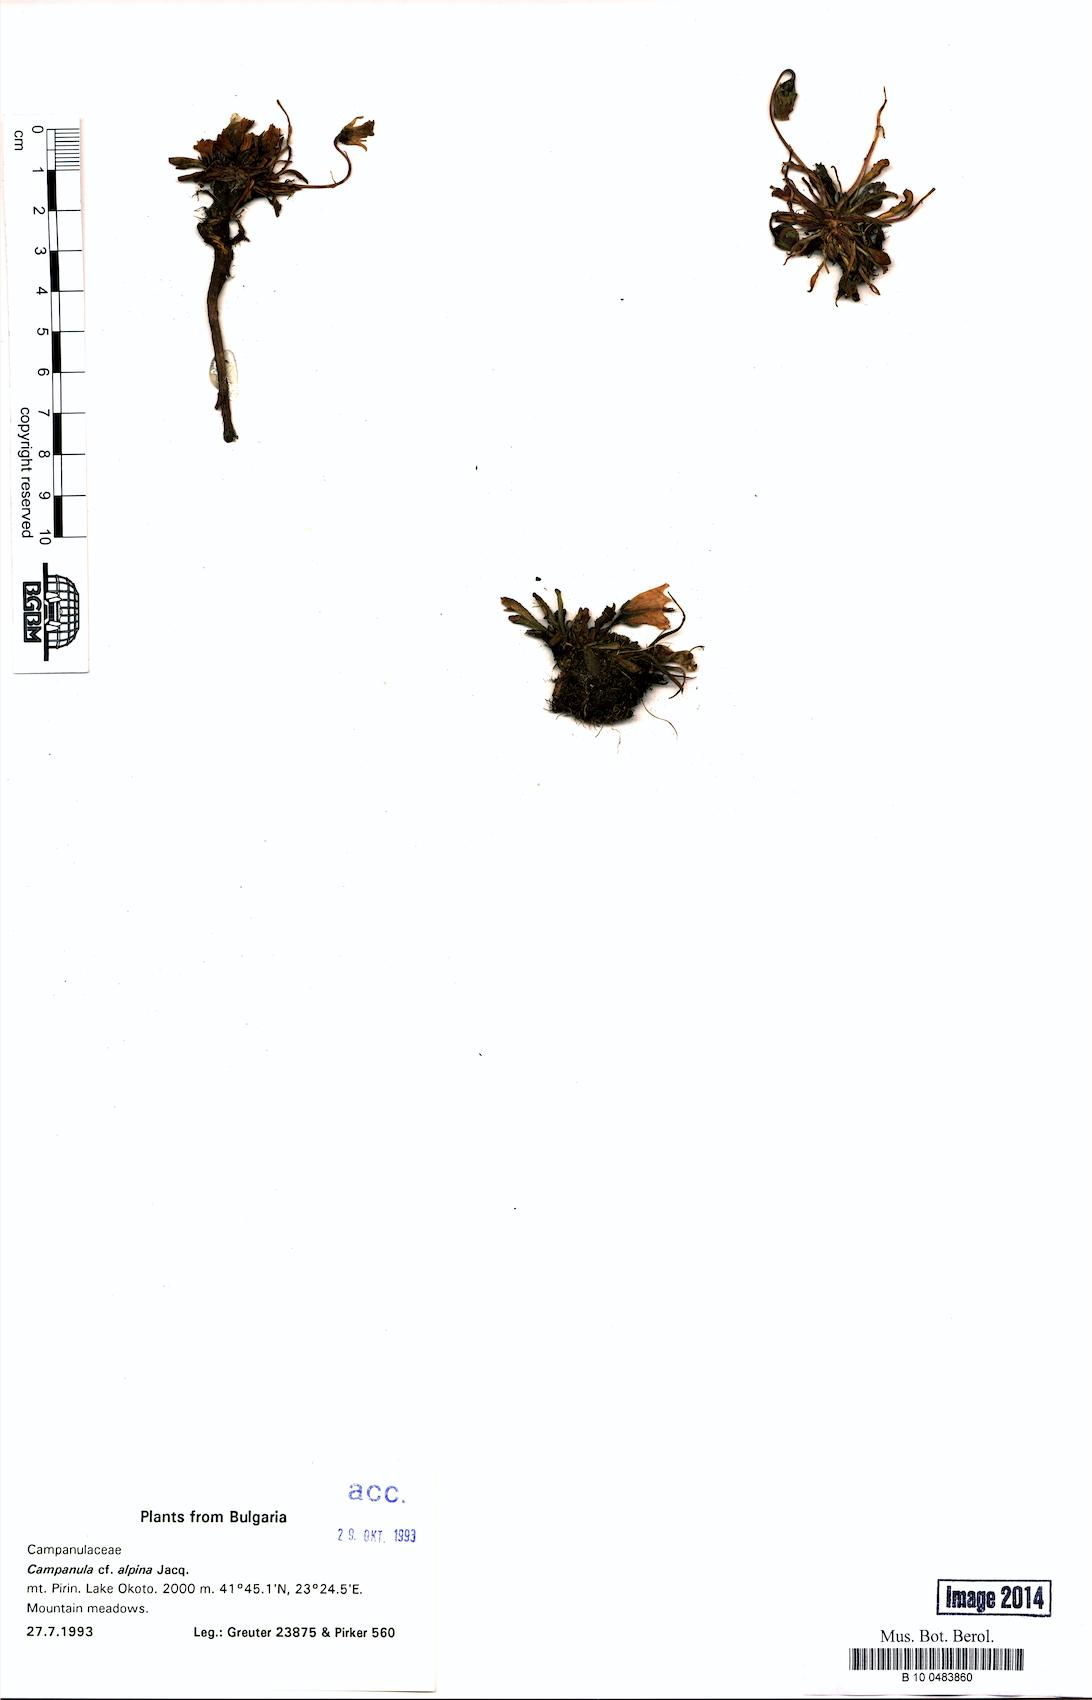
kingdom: Plantae
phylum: Tracheophyta
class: Magnoliopsida
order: Asterales
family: Campanulaceae
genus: Campanula
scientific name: Campanula alpina
